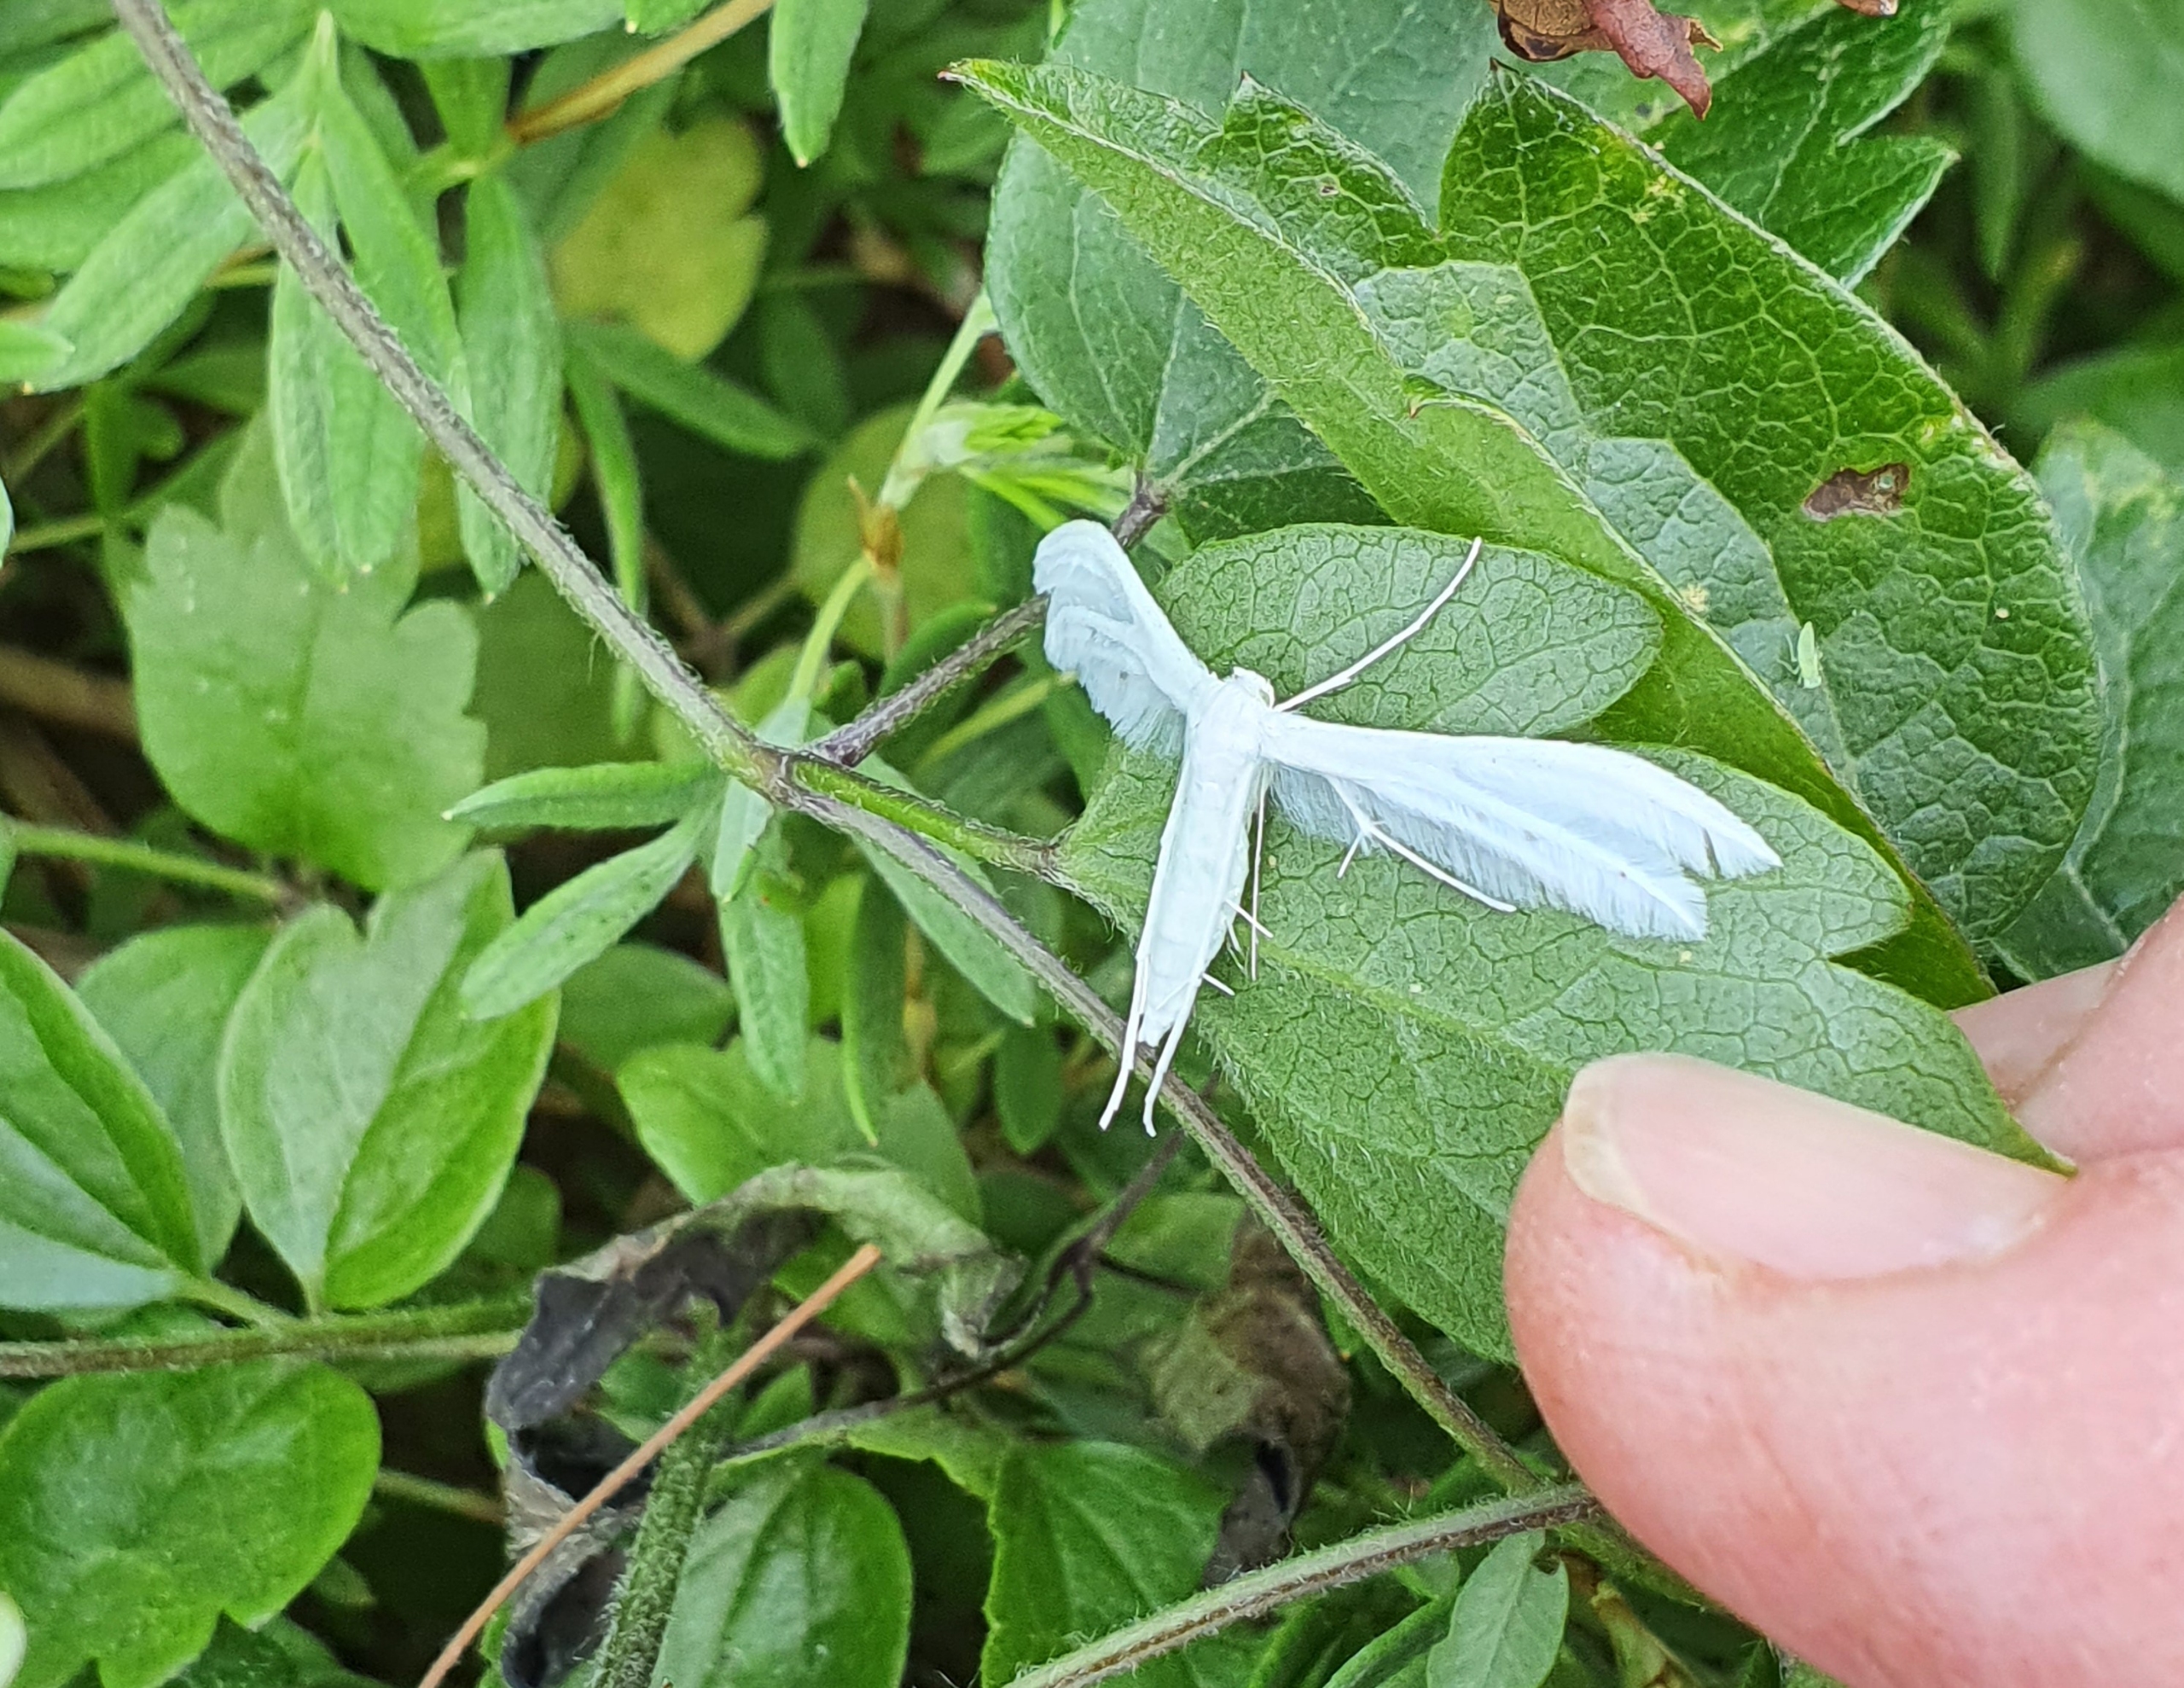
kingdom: Animalia
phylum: Arthropoda
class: Insecta
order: Lepidoptera
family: Pterophoridae
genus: Pterophorus
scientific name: Pterophorus pentadactyla
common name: Hvidt fjermøl
